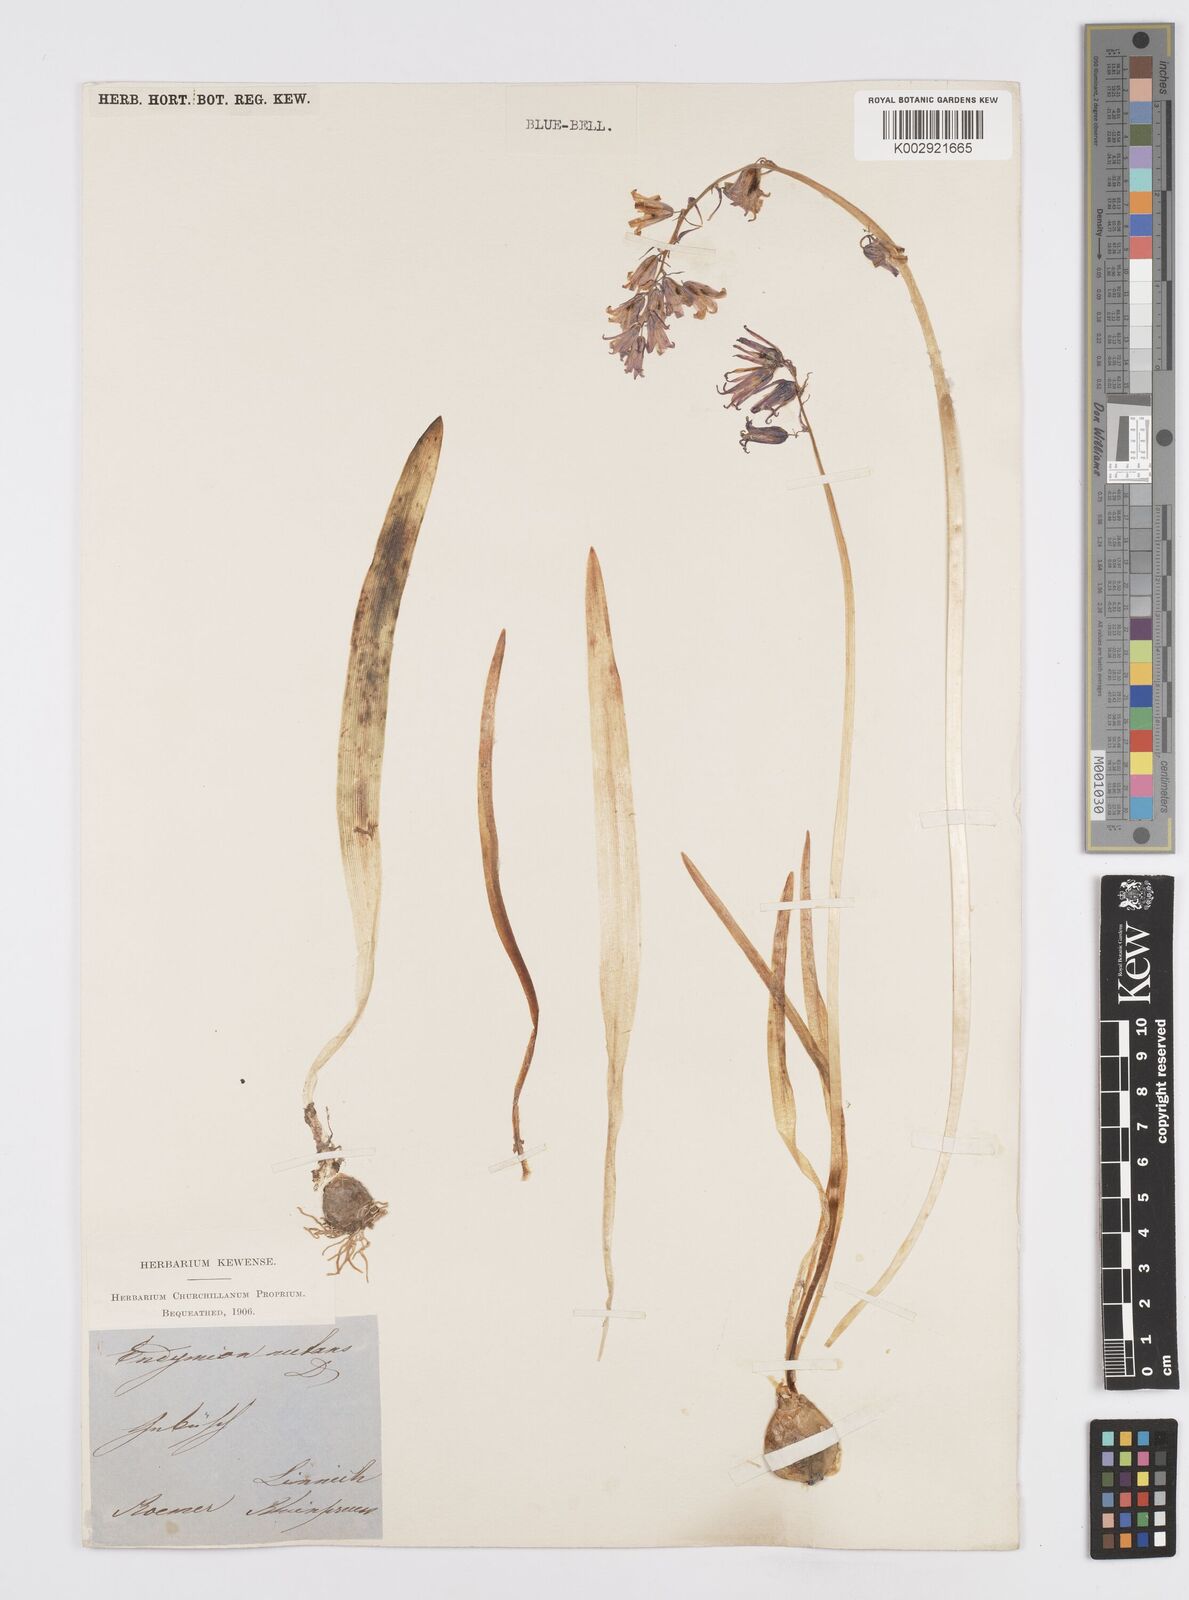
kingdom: Plantae
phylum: Tracheophyta
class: Liliopsida
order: Asparagales
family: Asparagaceae
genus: Hyacinthoides
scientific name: Hyacinthoides non-scripta
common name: Bluebell
